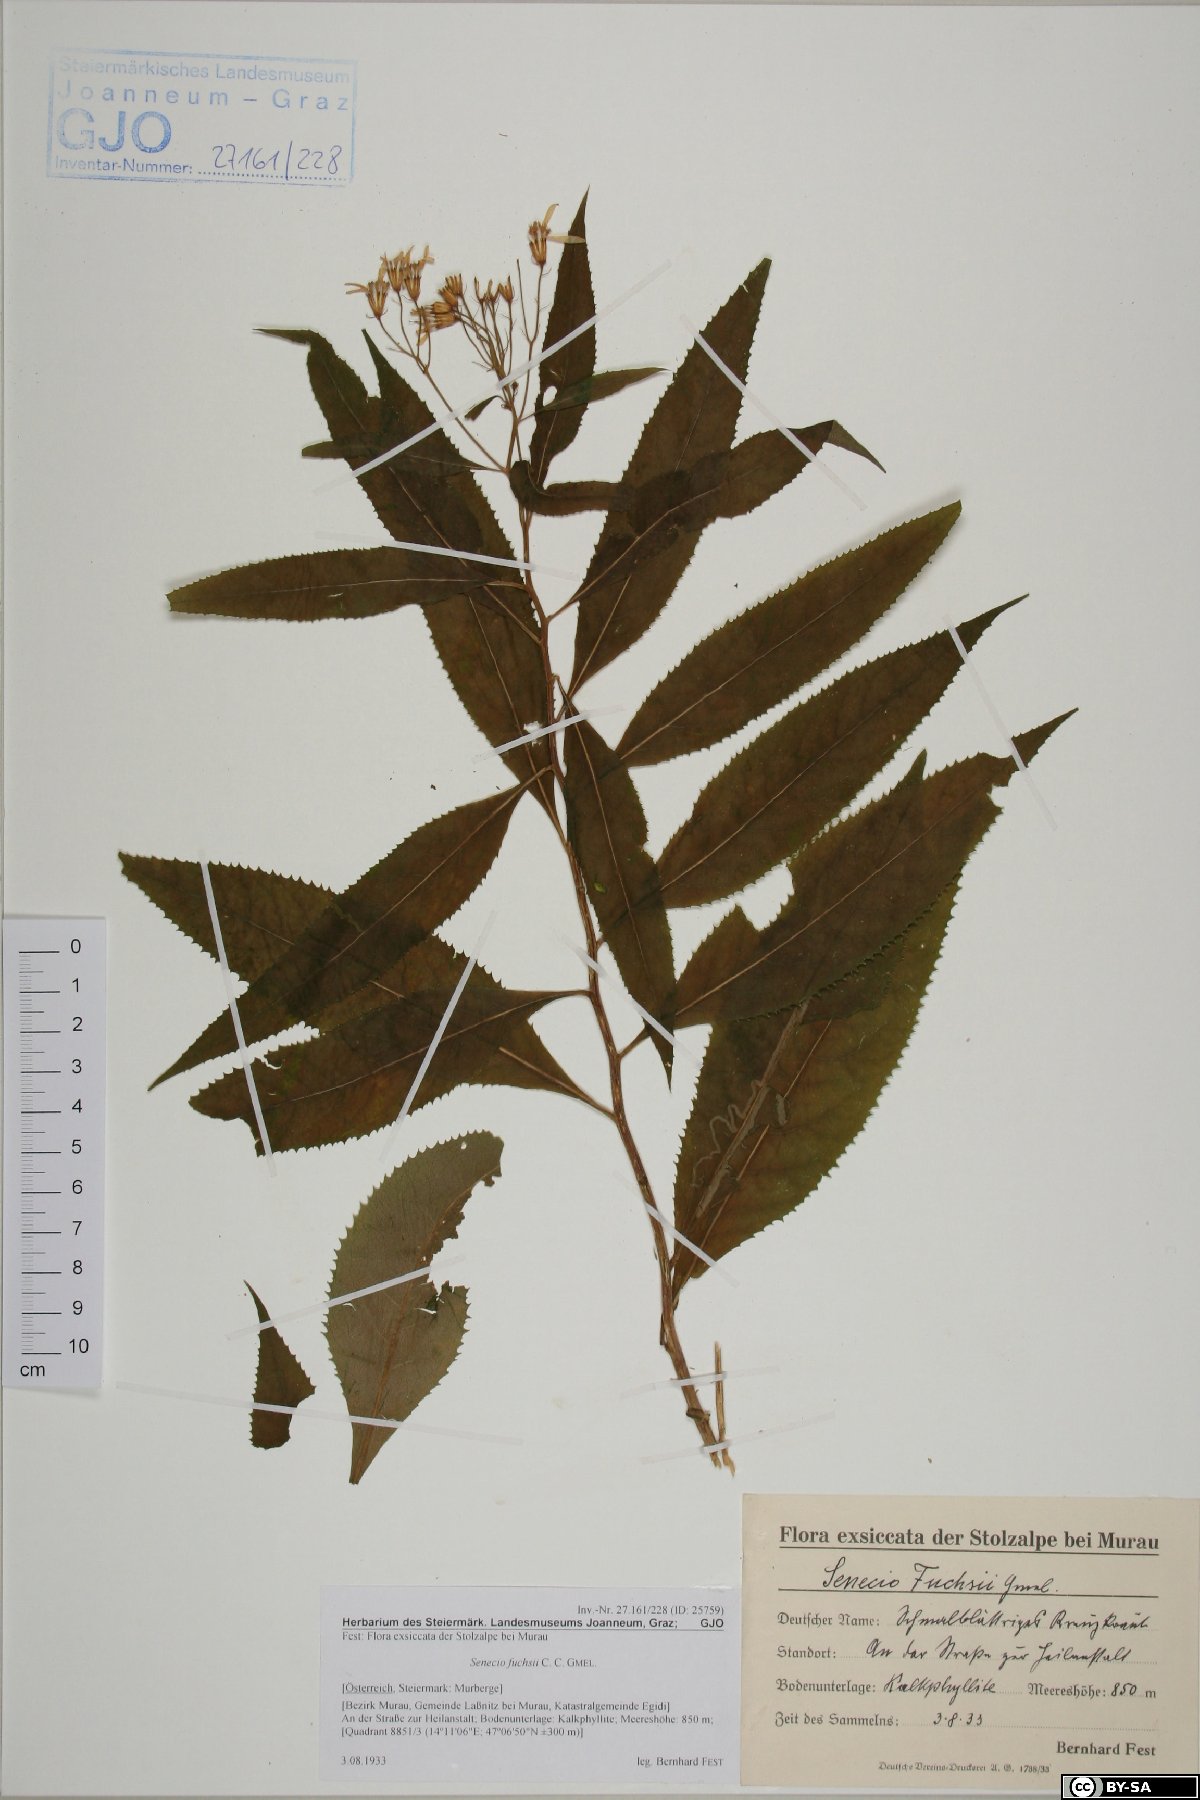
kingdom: Plantae
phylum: Tracheophyta
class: Magnoliopsida
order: Asterales
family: Asteraceae
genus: Senecio
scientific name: Senecio ovatus
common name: Wood ragwort
